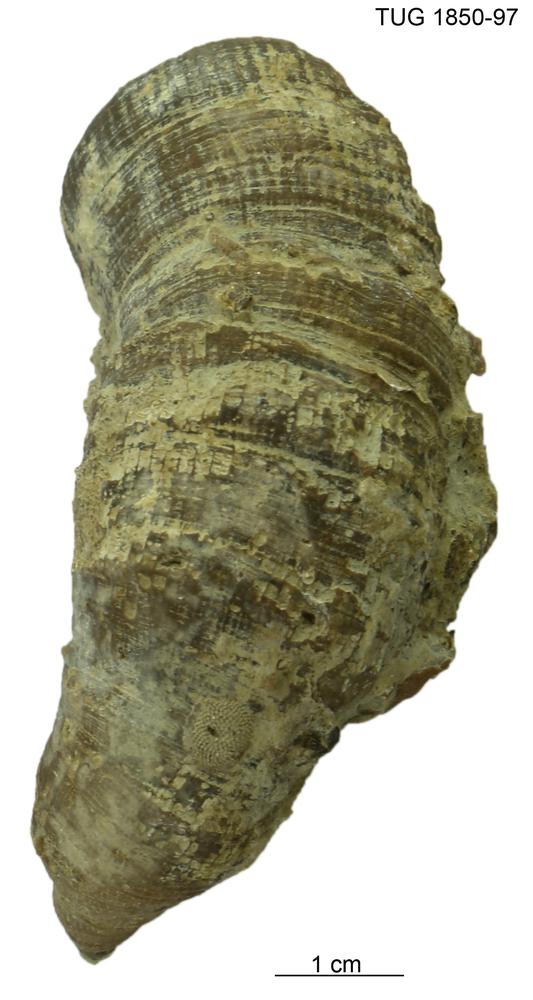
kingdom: Animalia
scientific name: Animalia
